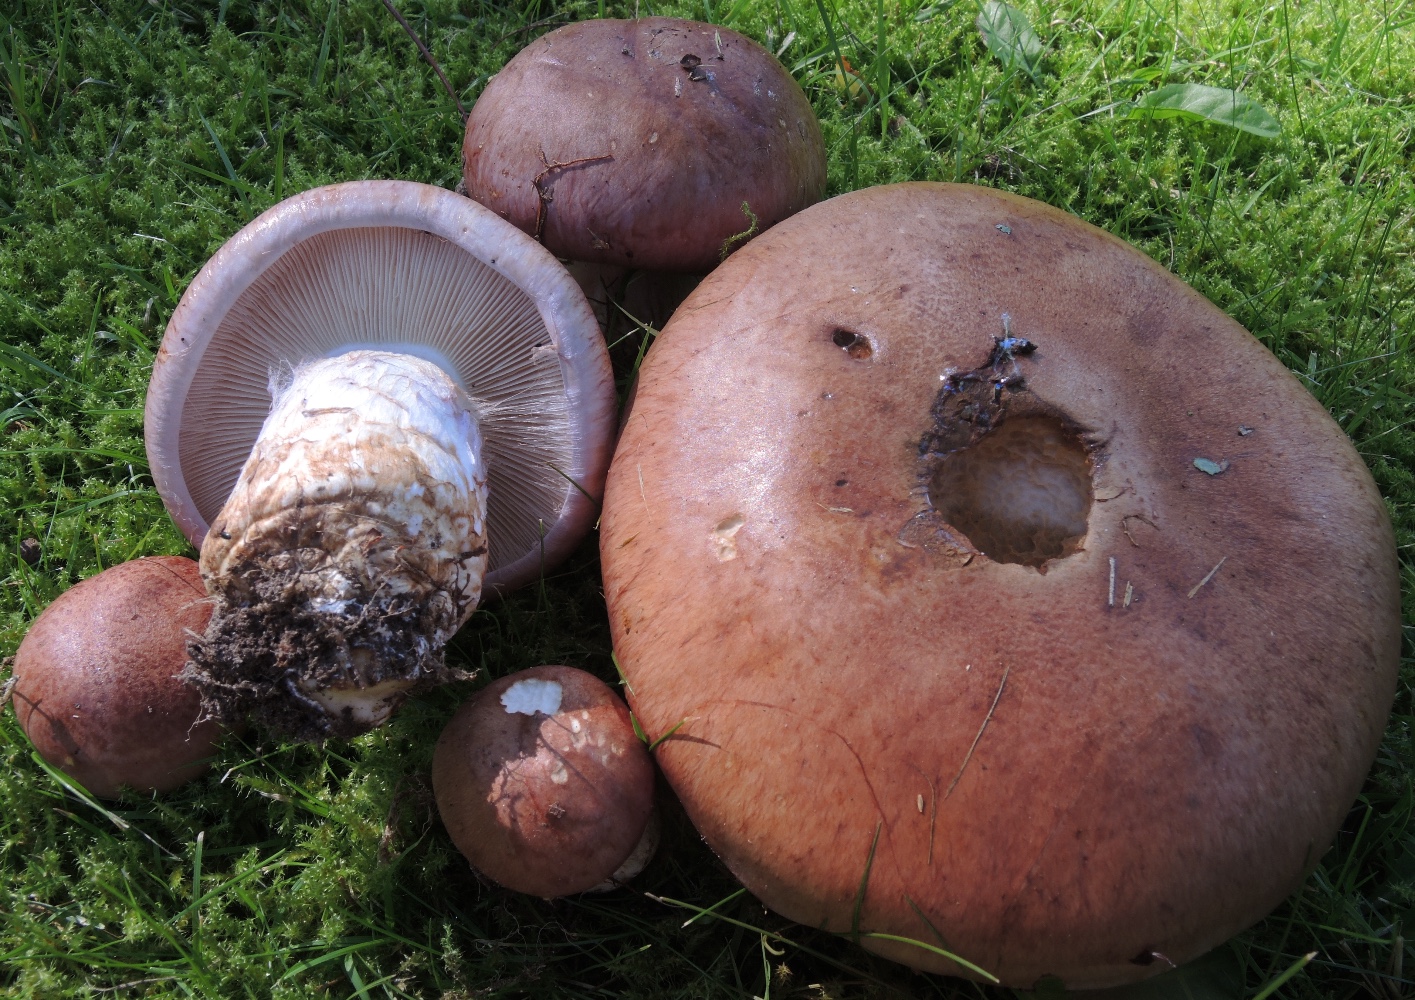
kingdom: Fungi
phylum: Basidiomycota
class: Agaricomycetes
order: Agaricales
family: Cortinariaceae
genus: Phlegmacium
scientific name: Phlegmacium balteatocumatile
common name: violettrådet slørhat
